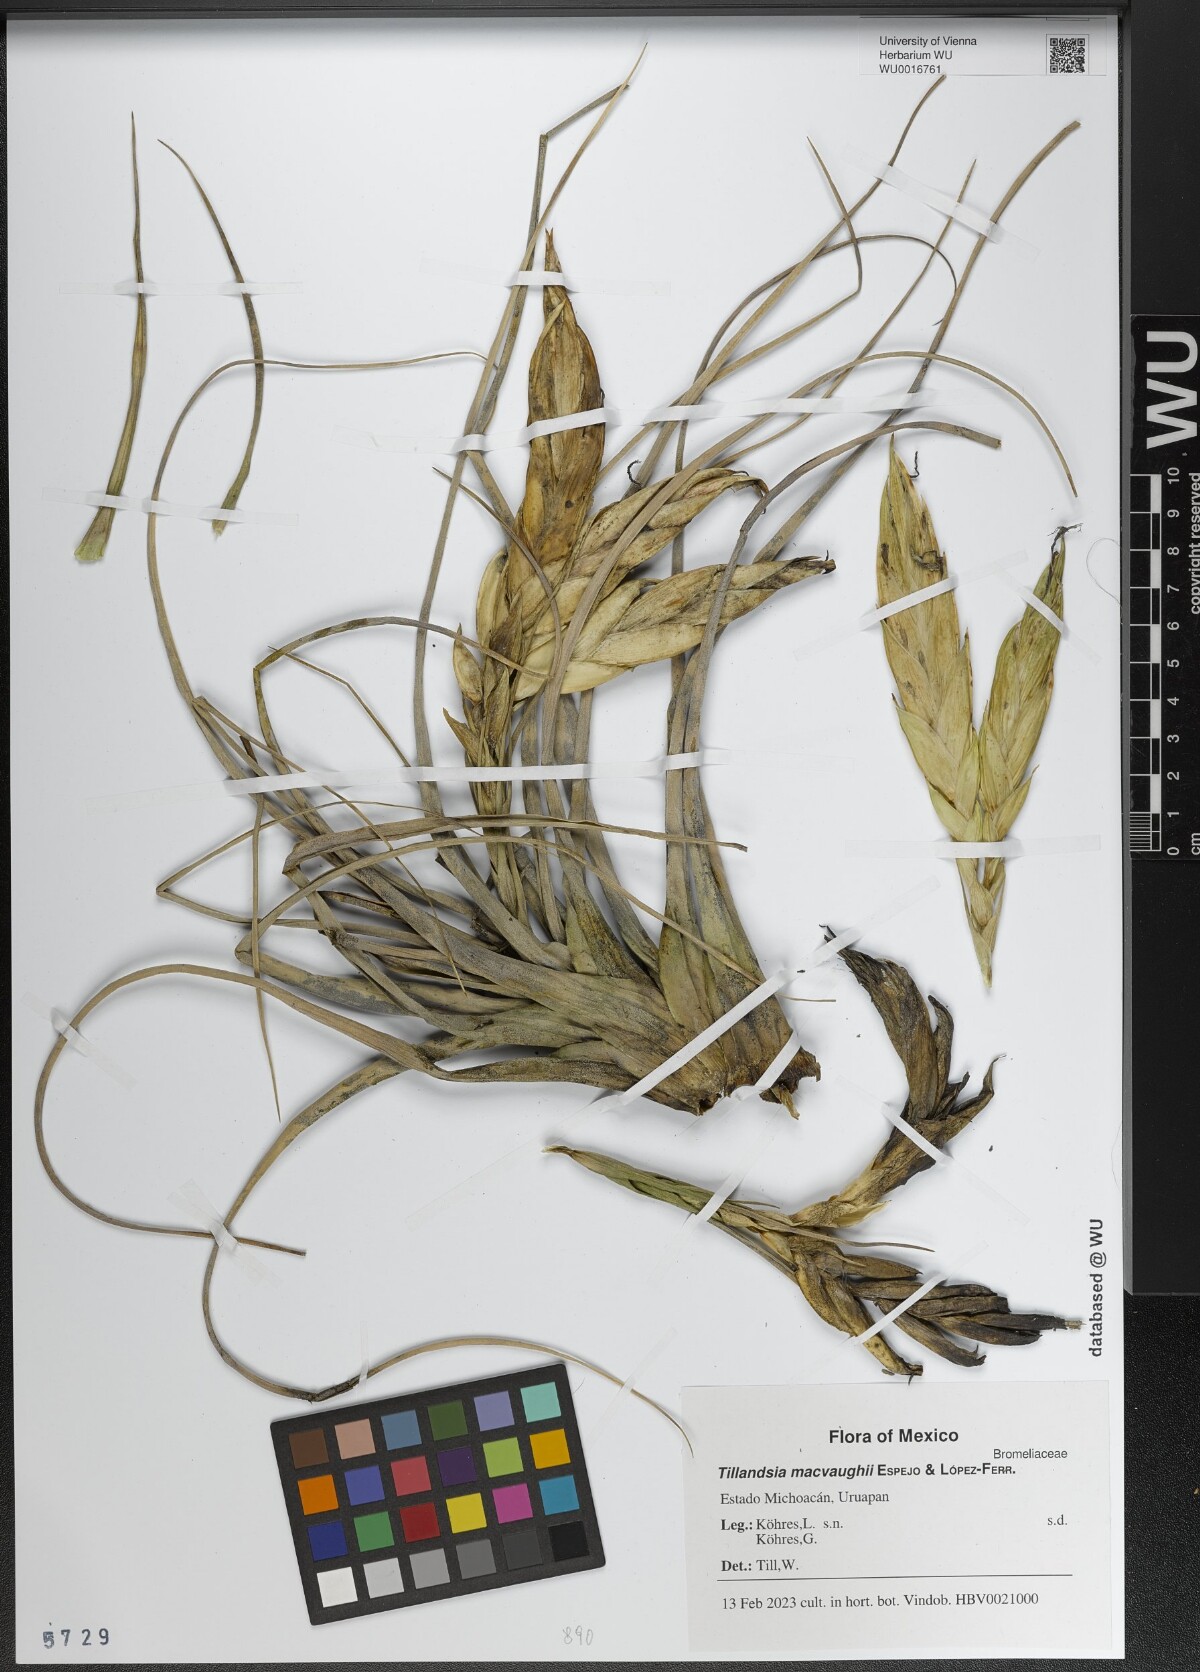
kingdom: Plantae
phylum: Tracheophyta
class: Liliopsida
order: Poales
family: Bromeliaceae
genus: Tillandsia
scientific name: Tillandsia macvaughii
